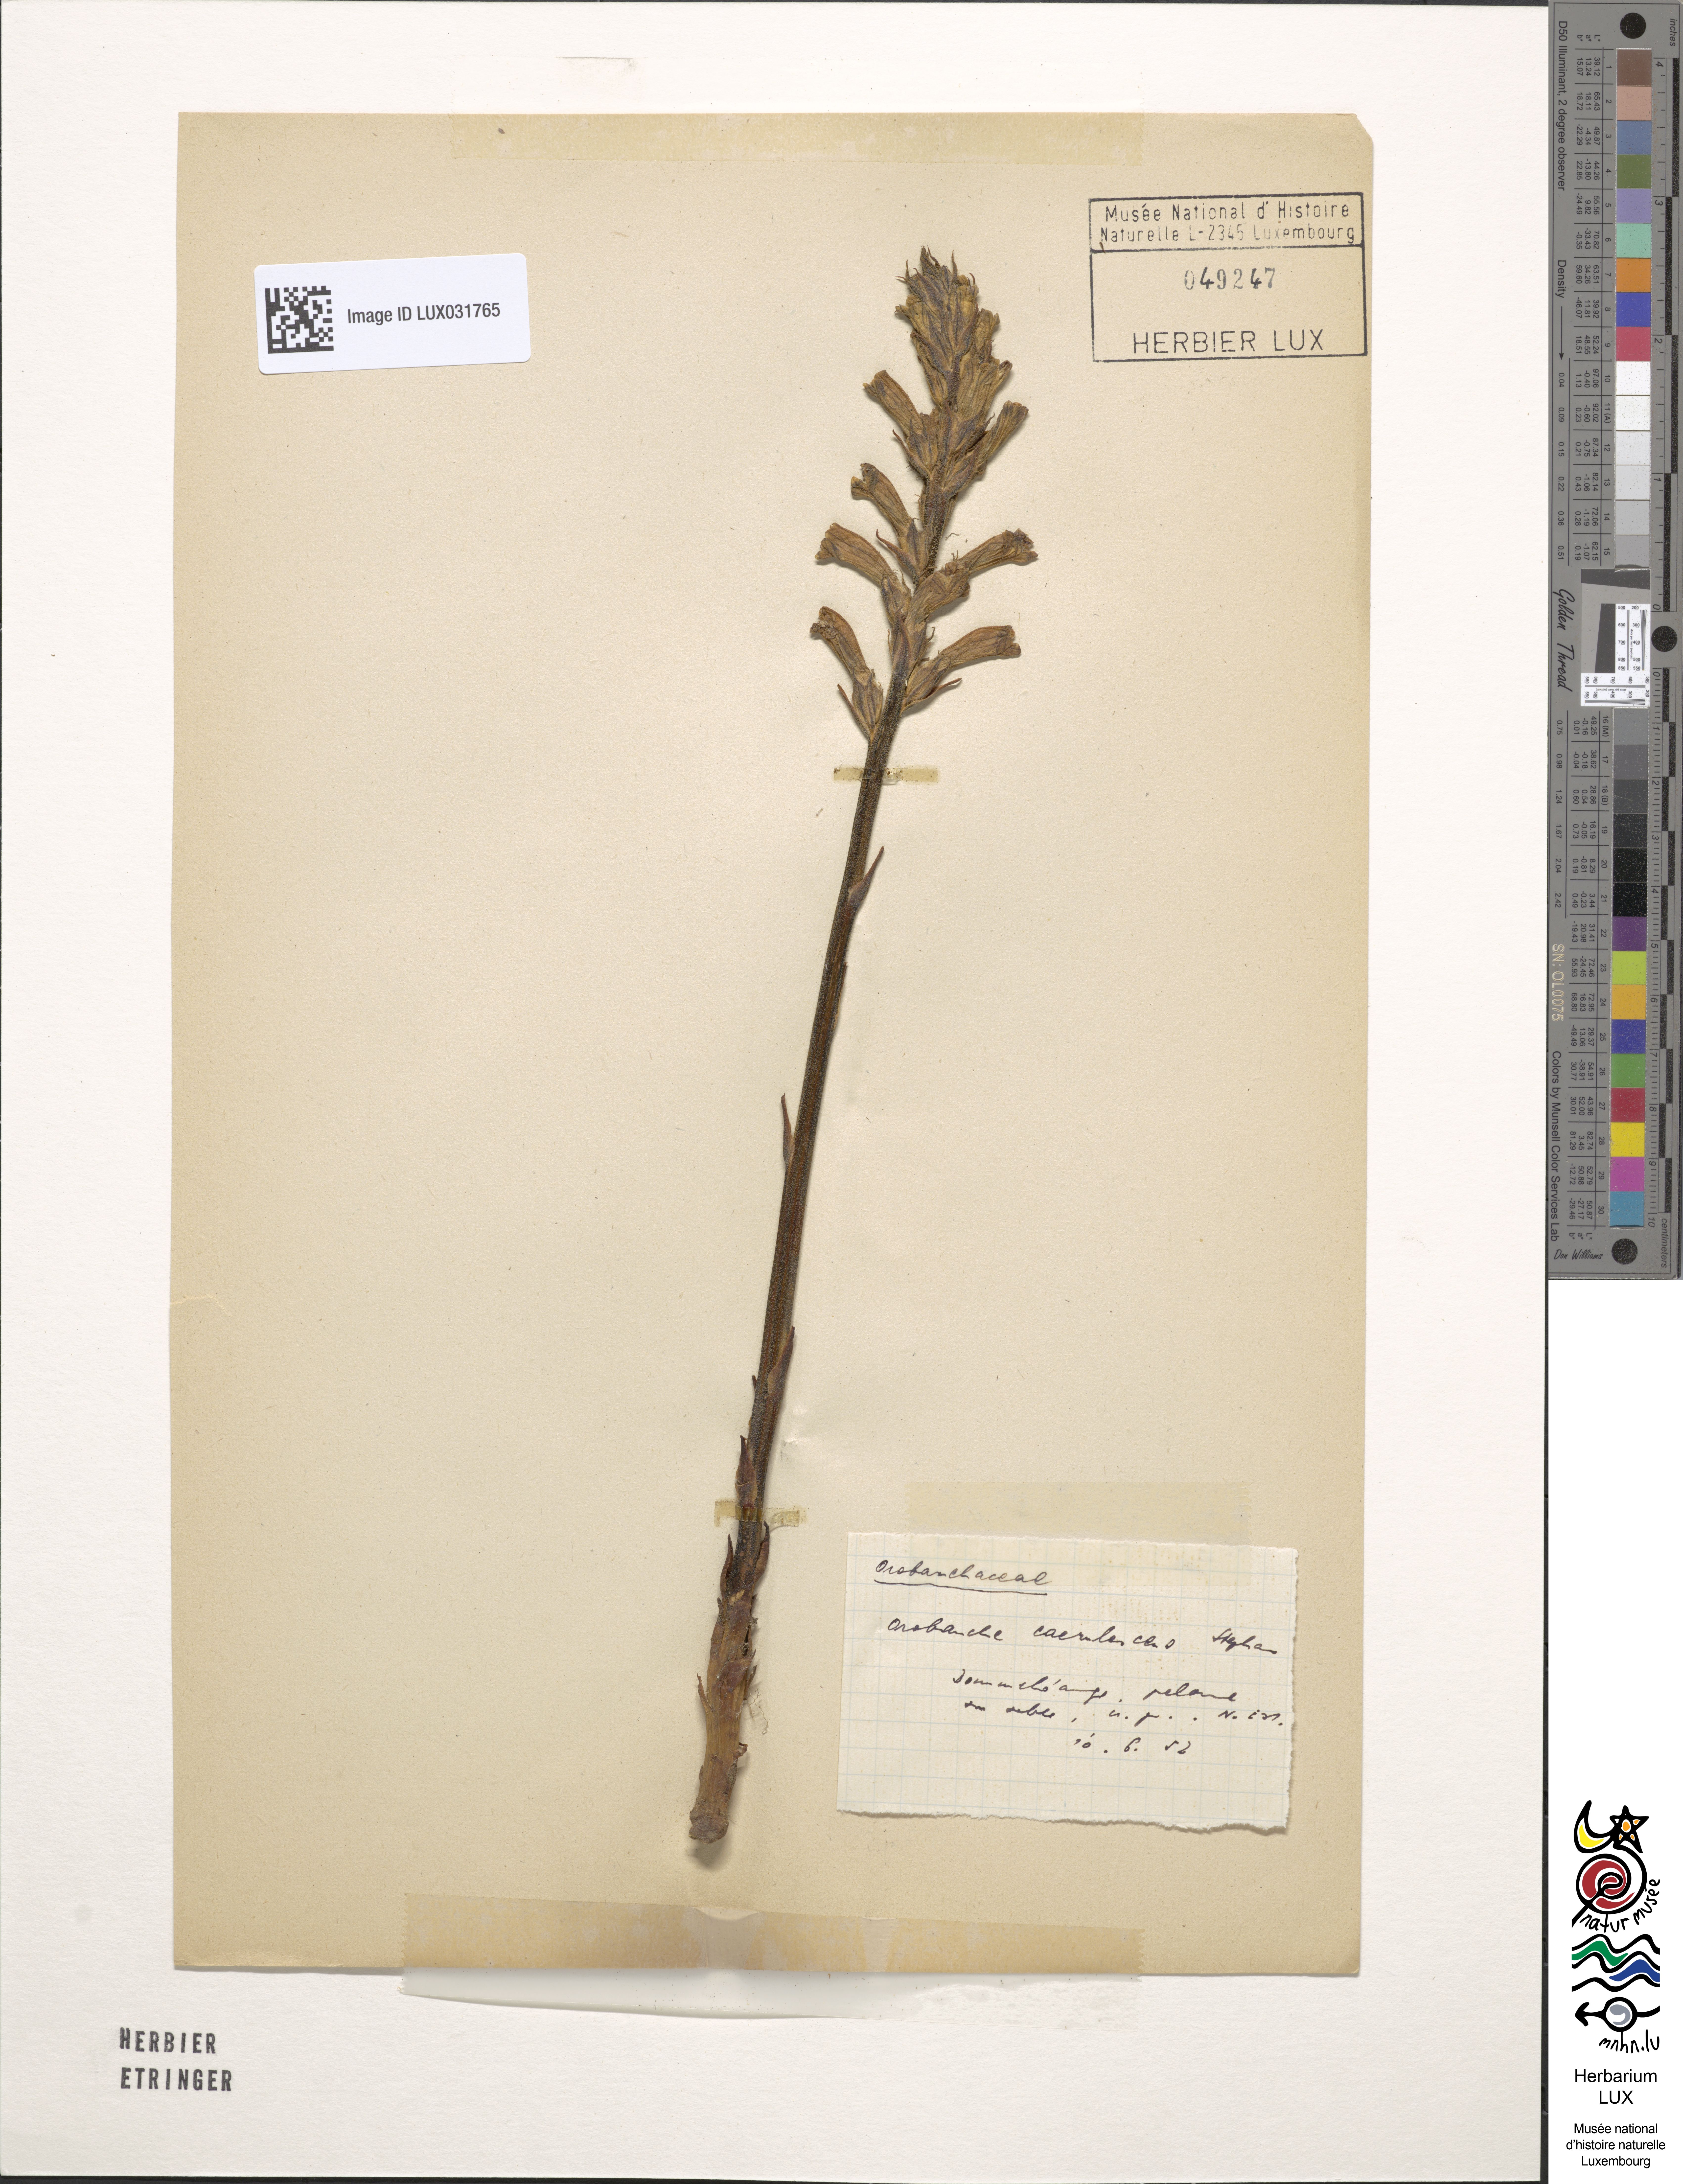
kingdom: Plantae
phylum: Tracheophyta
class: Magnoliopsida
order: Lamiales
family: Orobanchaceae
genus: Phelipanche
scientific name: Phelipanche purpurea
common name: Purple broomrape
